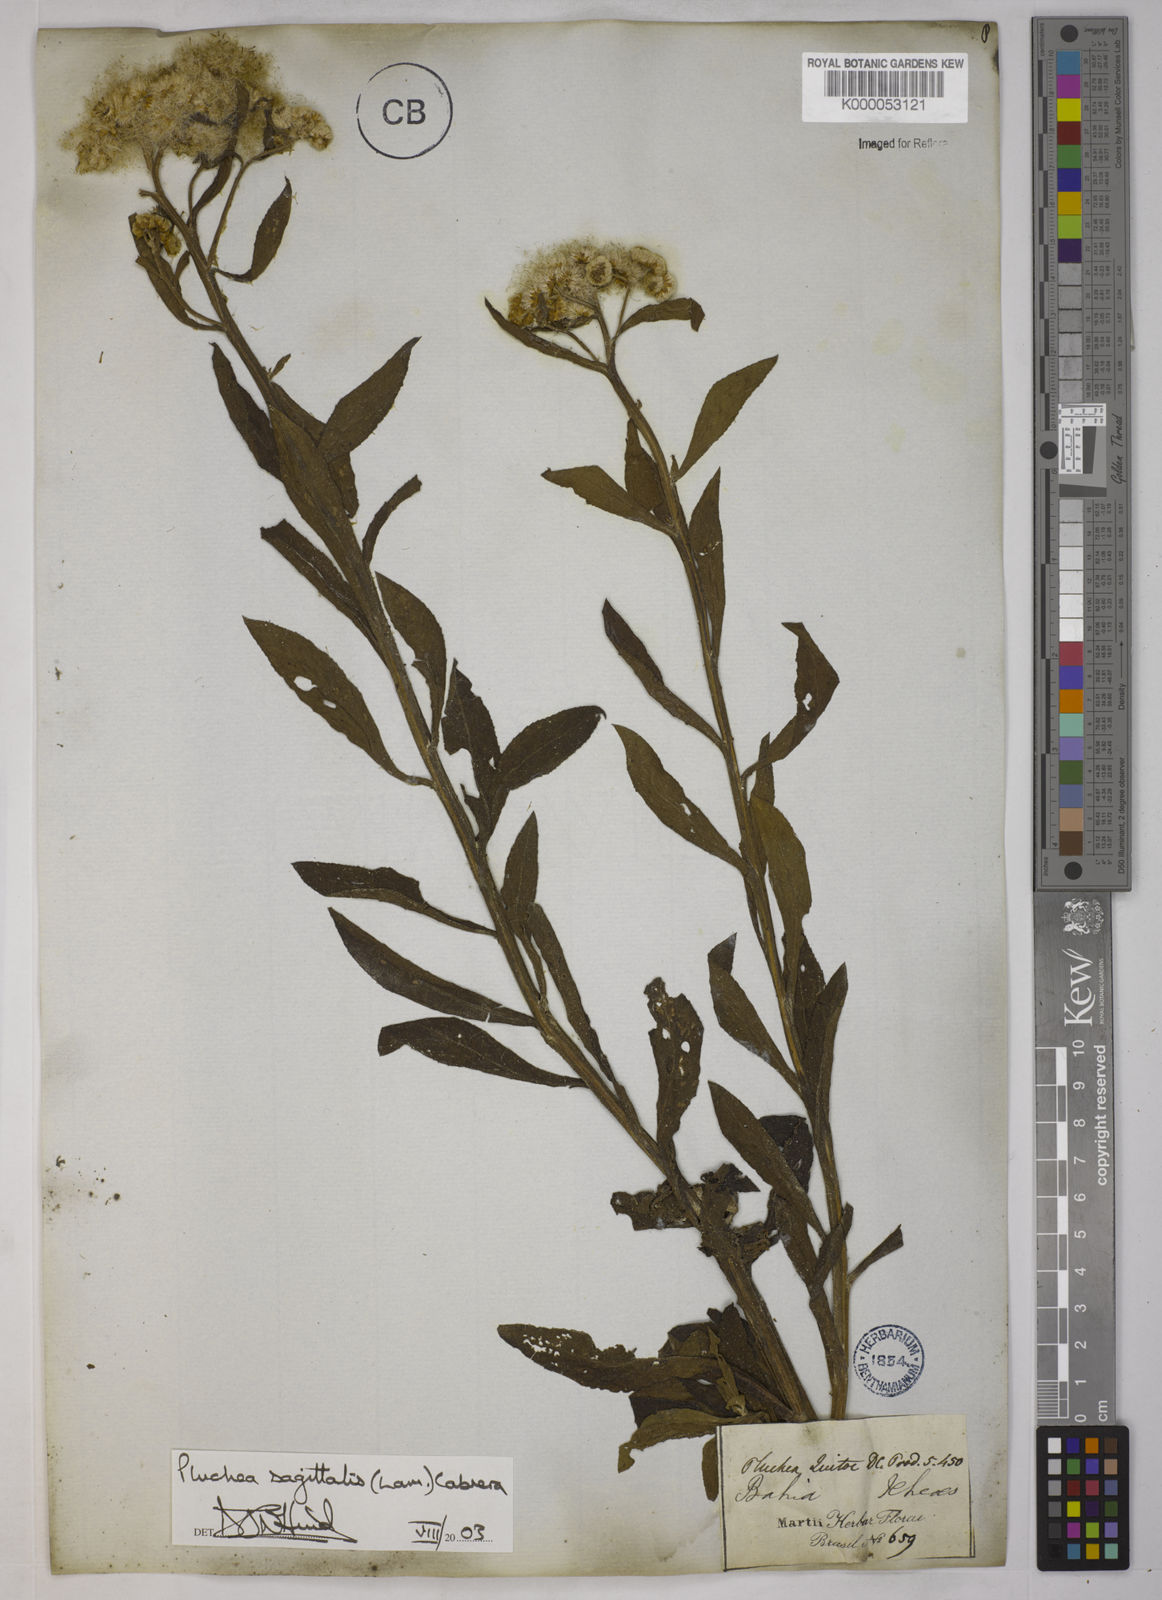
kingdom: Plantae
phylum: Tracheophyta
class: Magnoliopsida
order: Asterales
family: Asteraceae
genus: Pluchea
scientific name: Pluchea sagittalis
